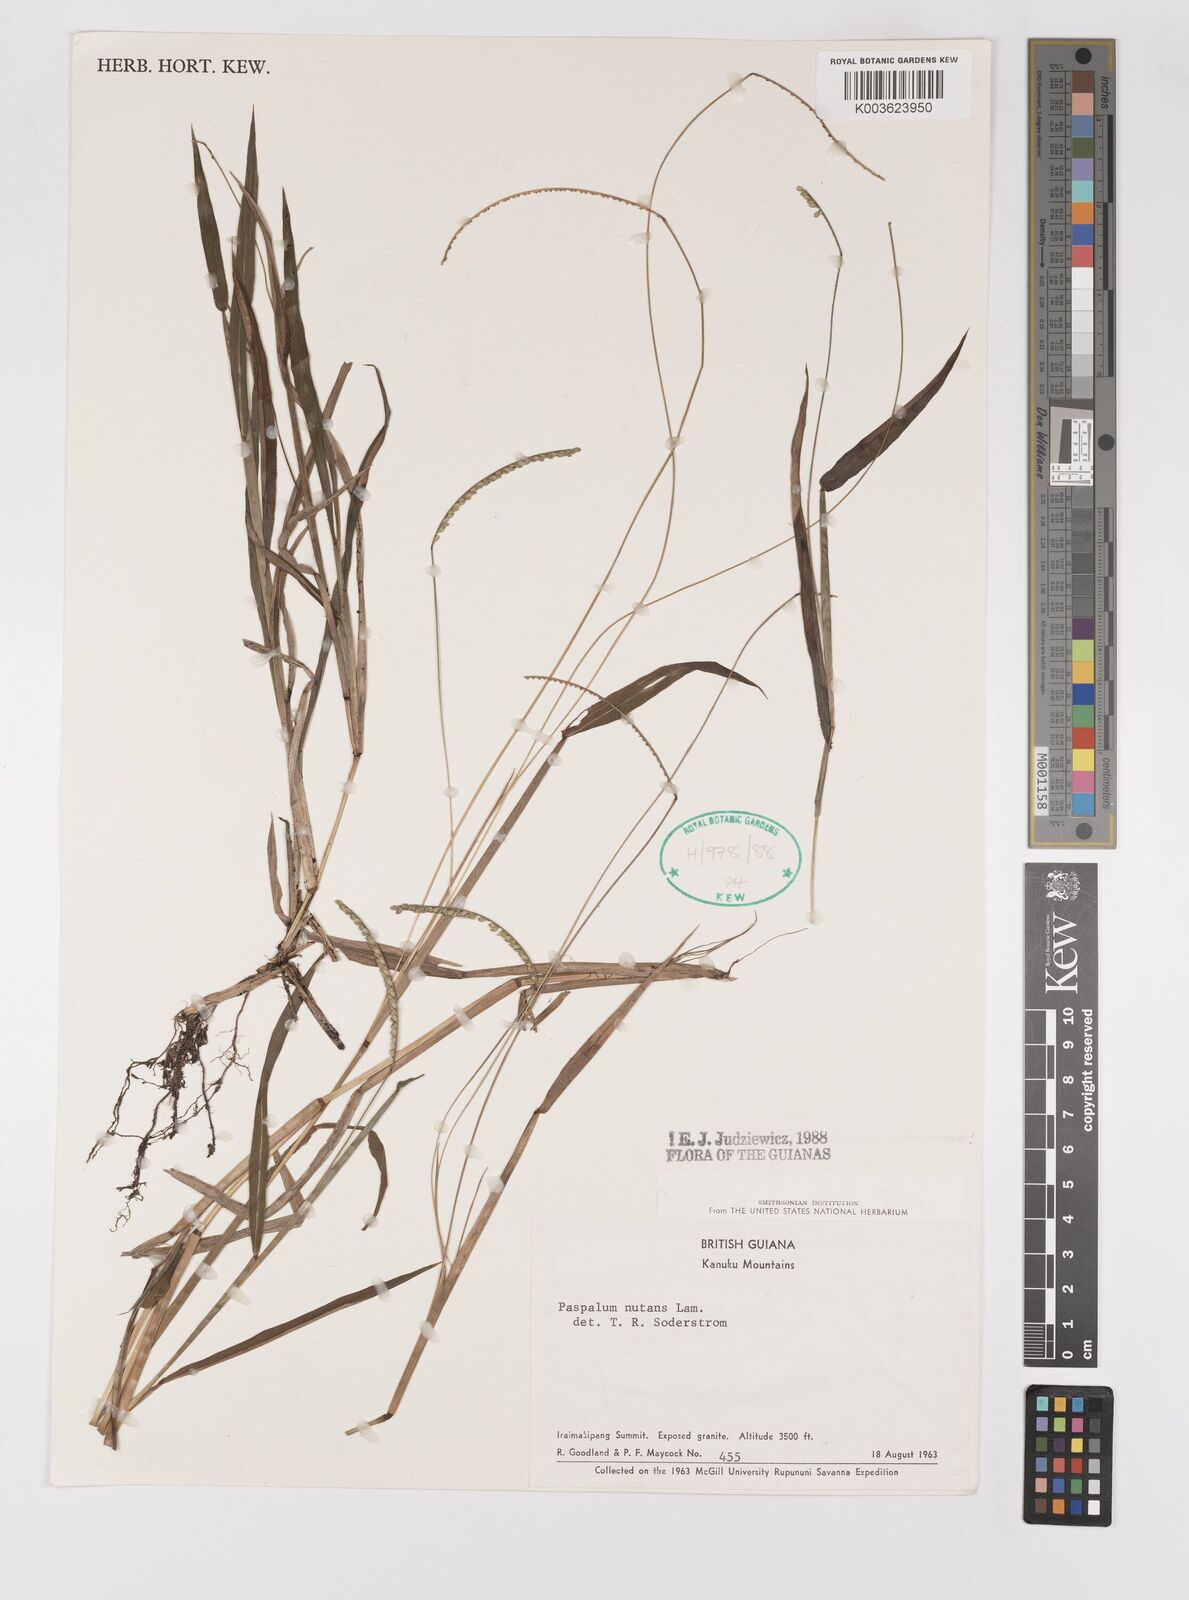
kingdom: Plantae
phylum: Tracheophyta
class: Liliopsida
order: Poales
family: Poaceae
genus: Paspalum
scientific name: Paspalum nutans
